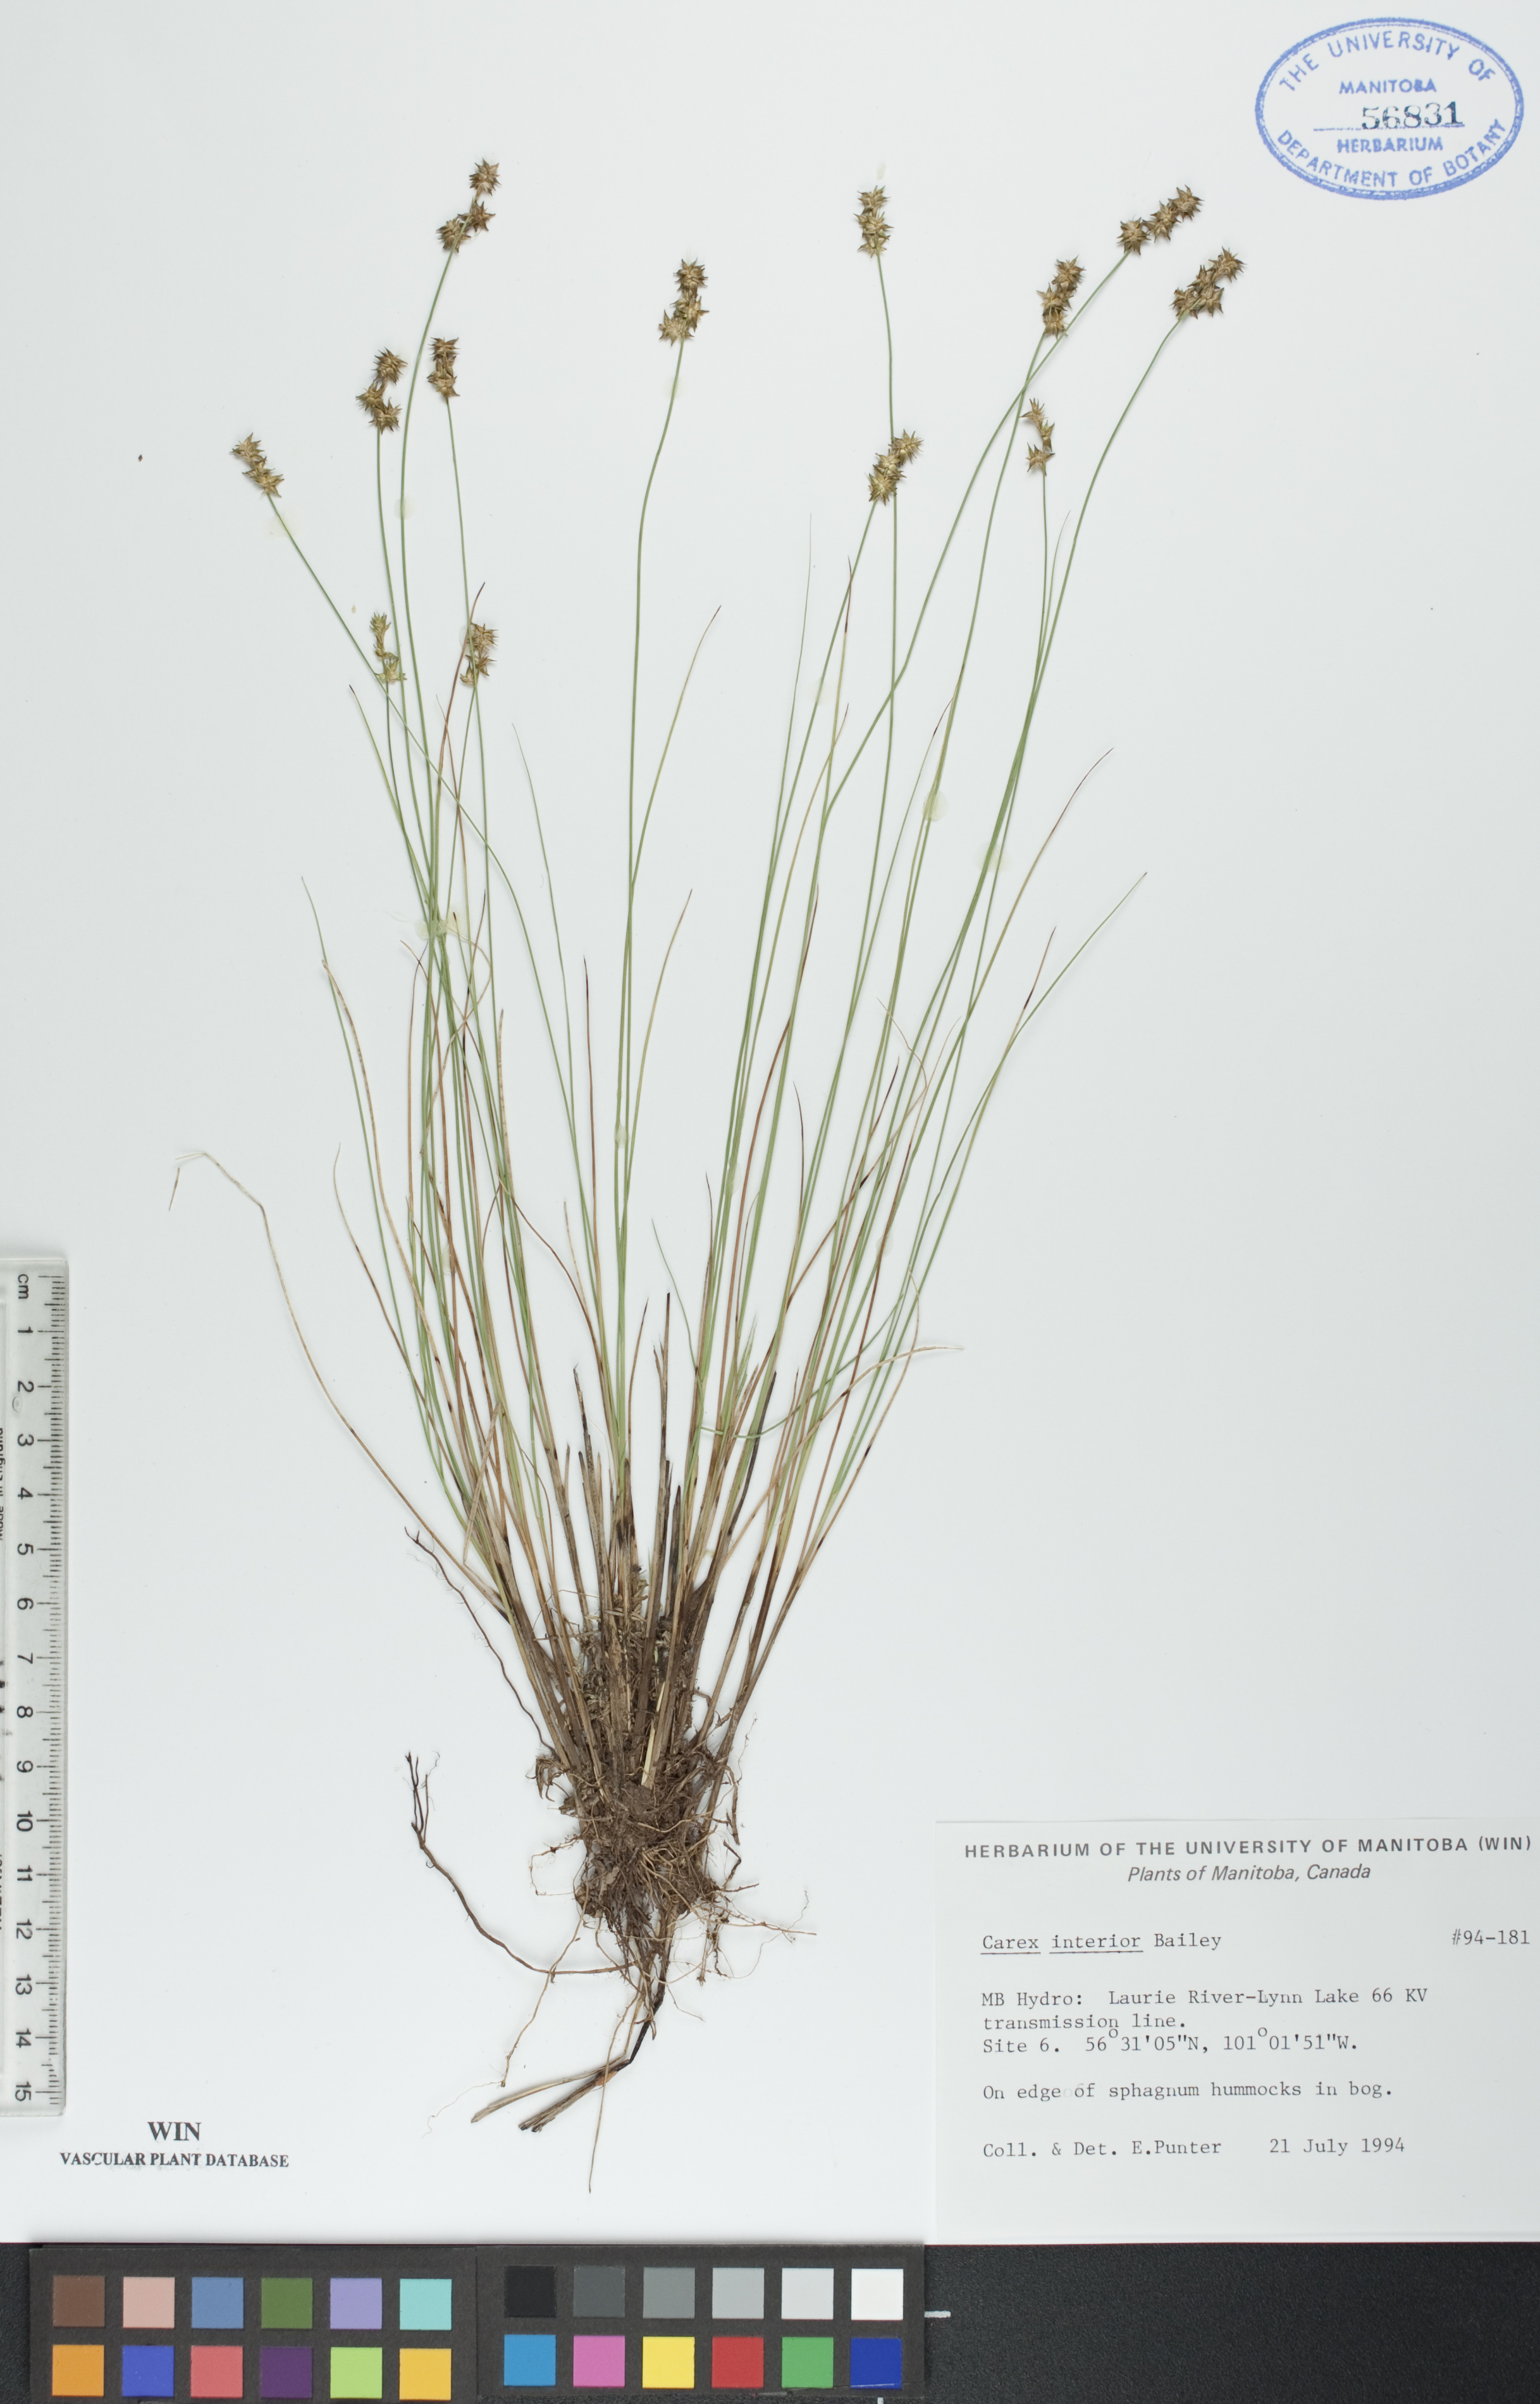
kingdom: Plantae
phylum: Tracheophyta
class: Liliopsida
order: Poales
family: Cyperaceae
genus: Carex
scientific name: Carex interior
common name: Inland sedge
